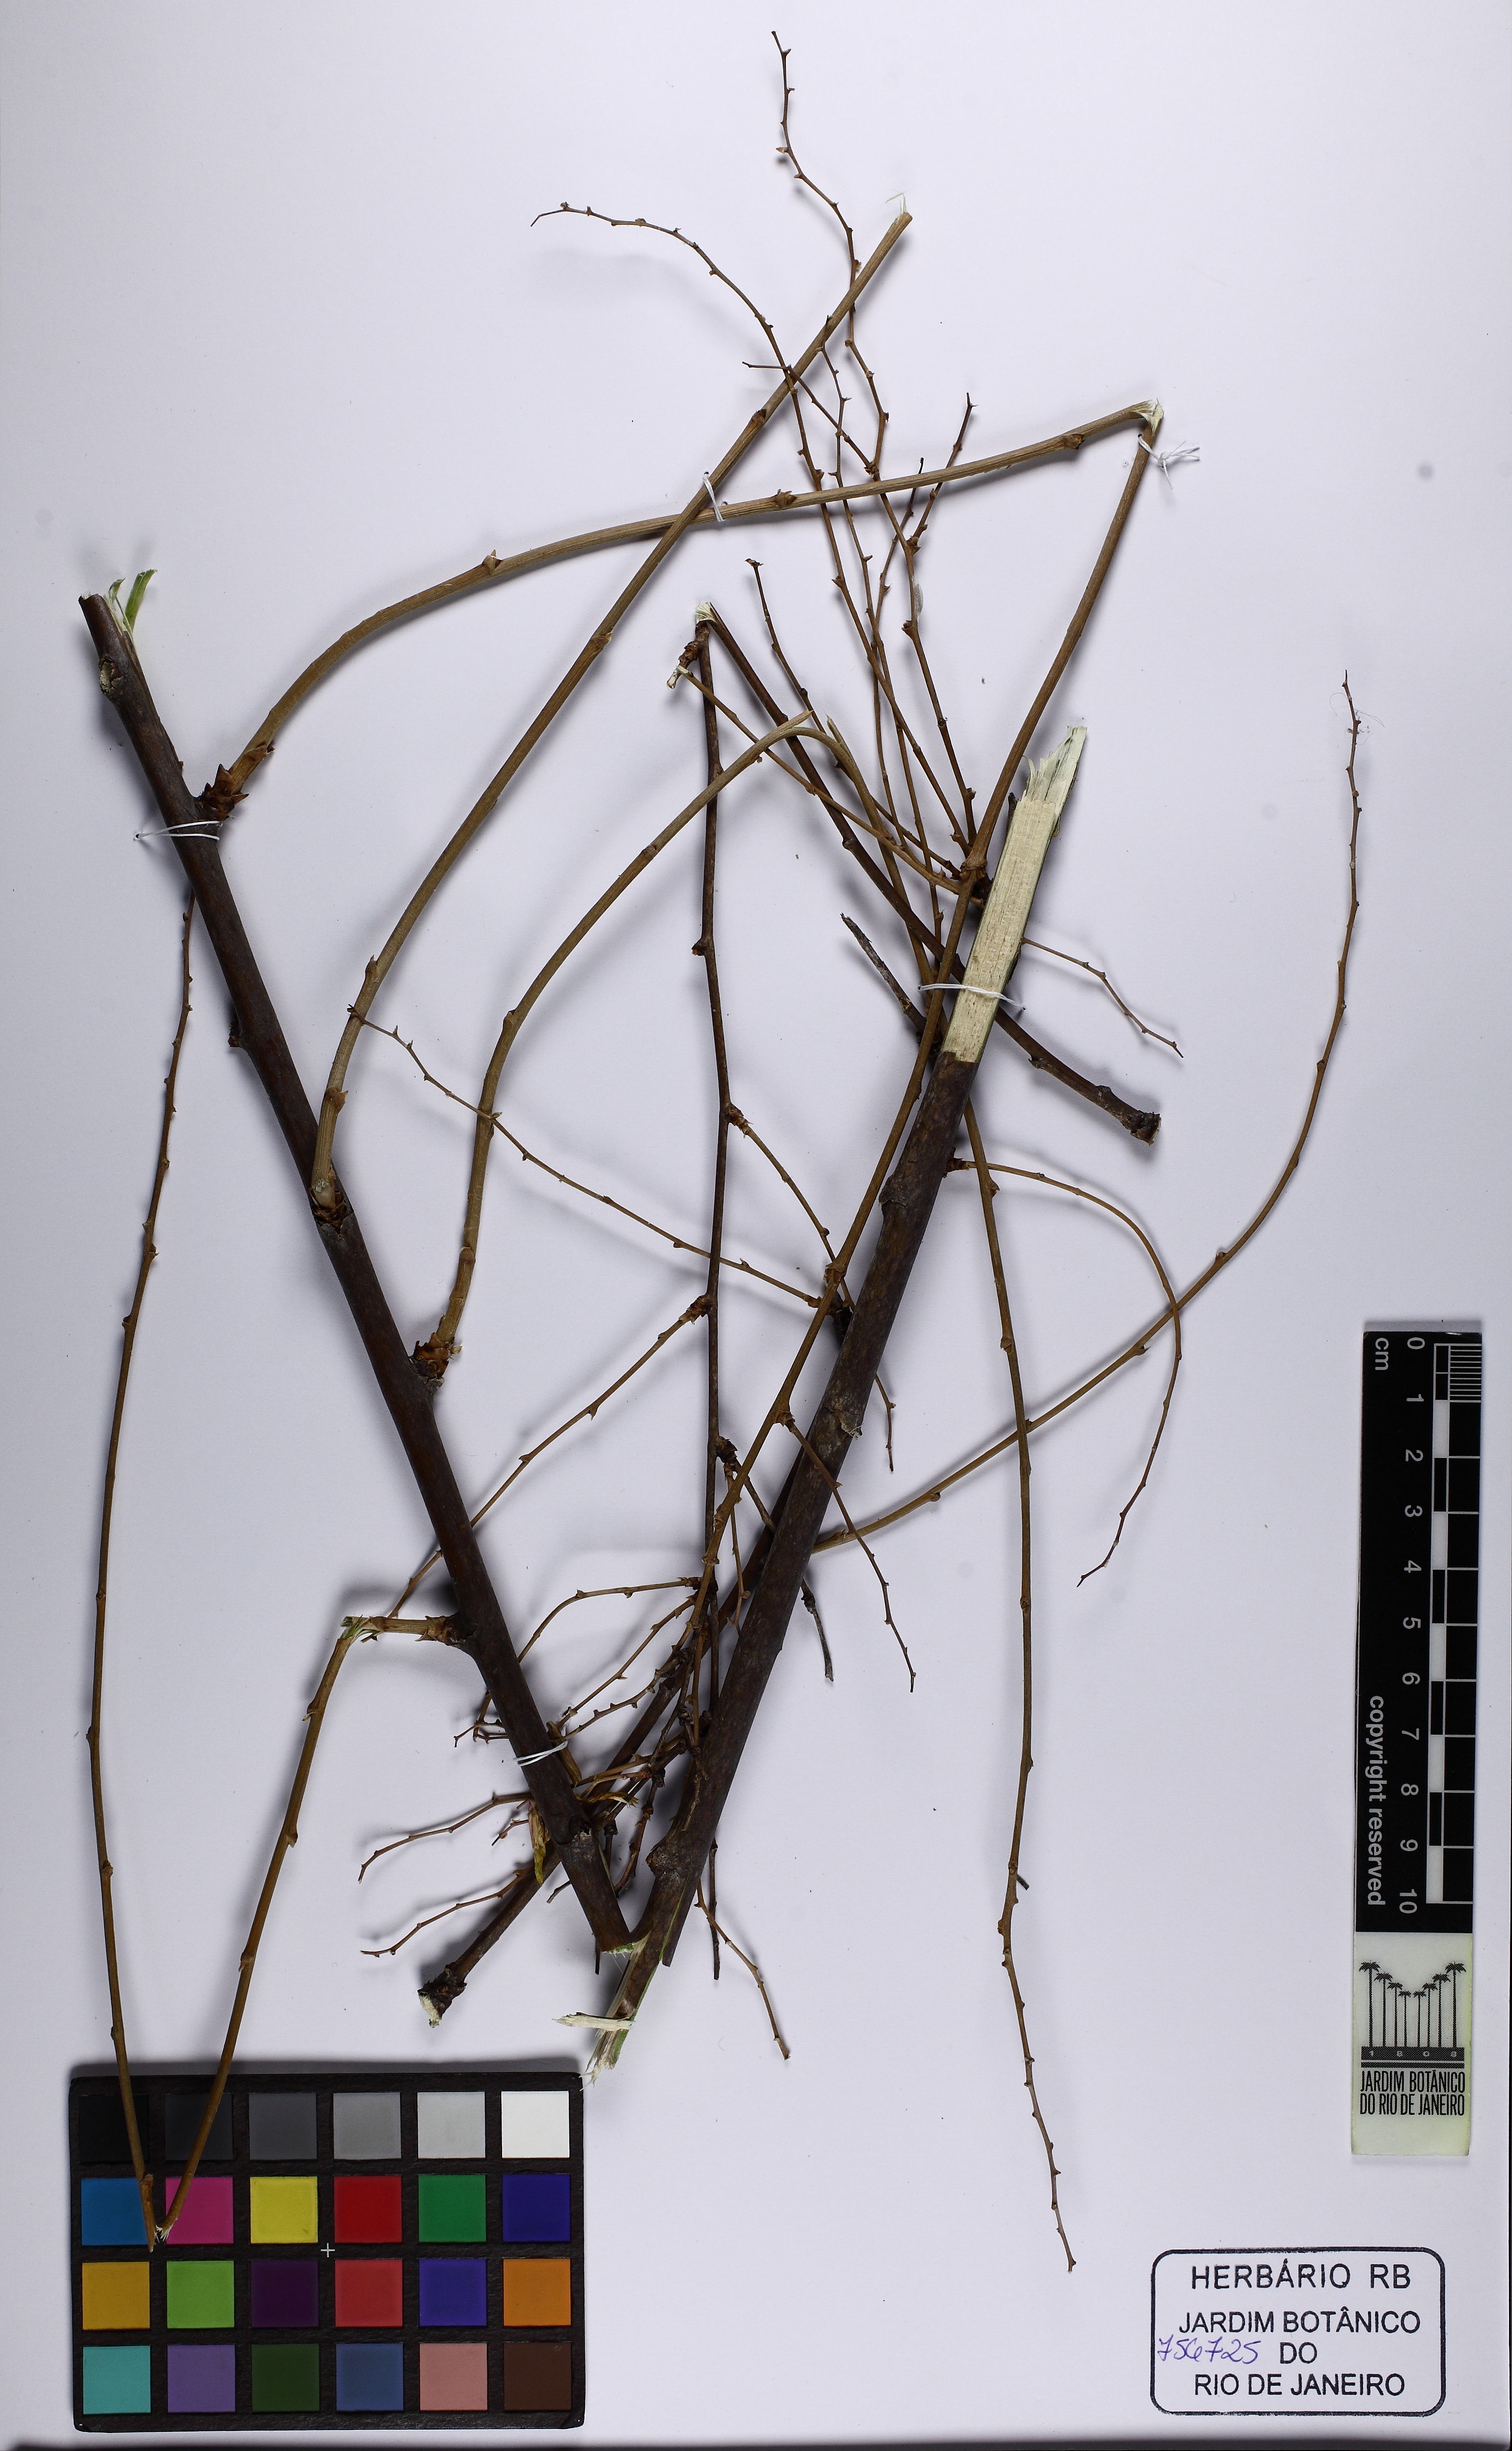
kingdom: Plantae
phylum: Tracheophyta
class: Liliopsida
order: Poales
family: Bromeliaceae
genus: Deuterocohnia
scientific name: Deuterocohnia meziana
